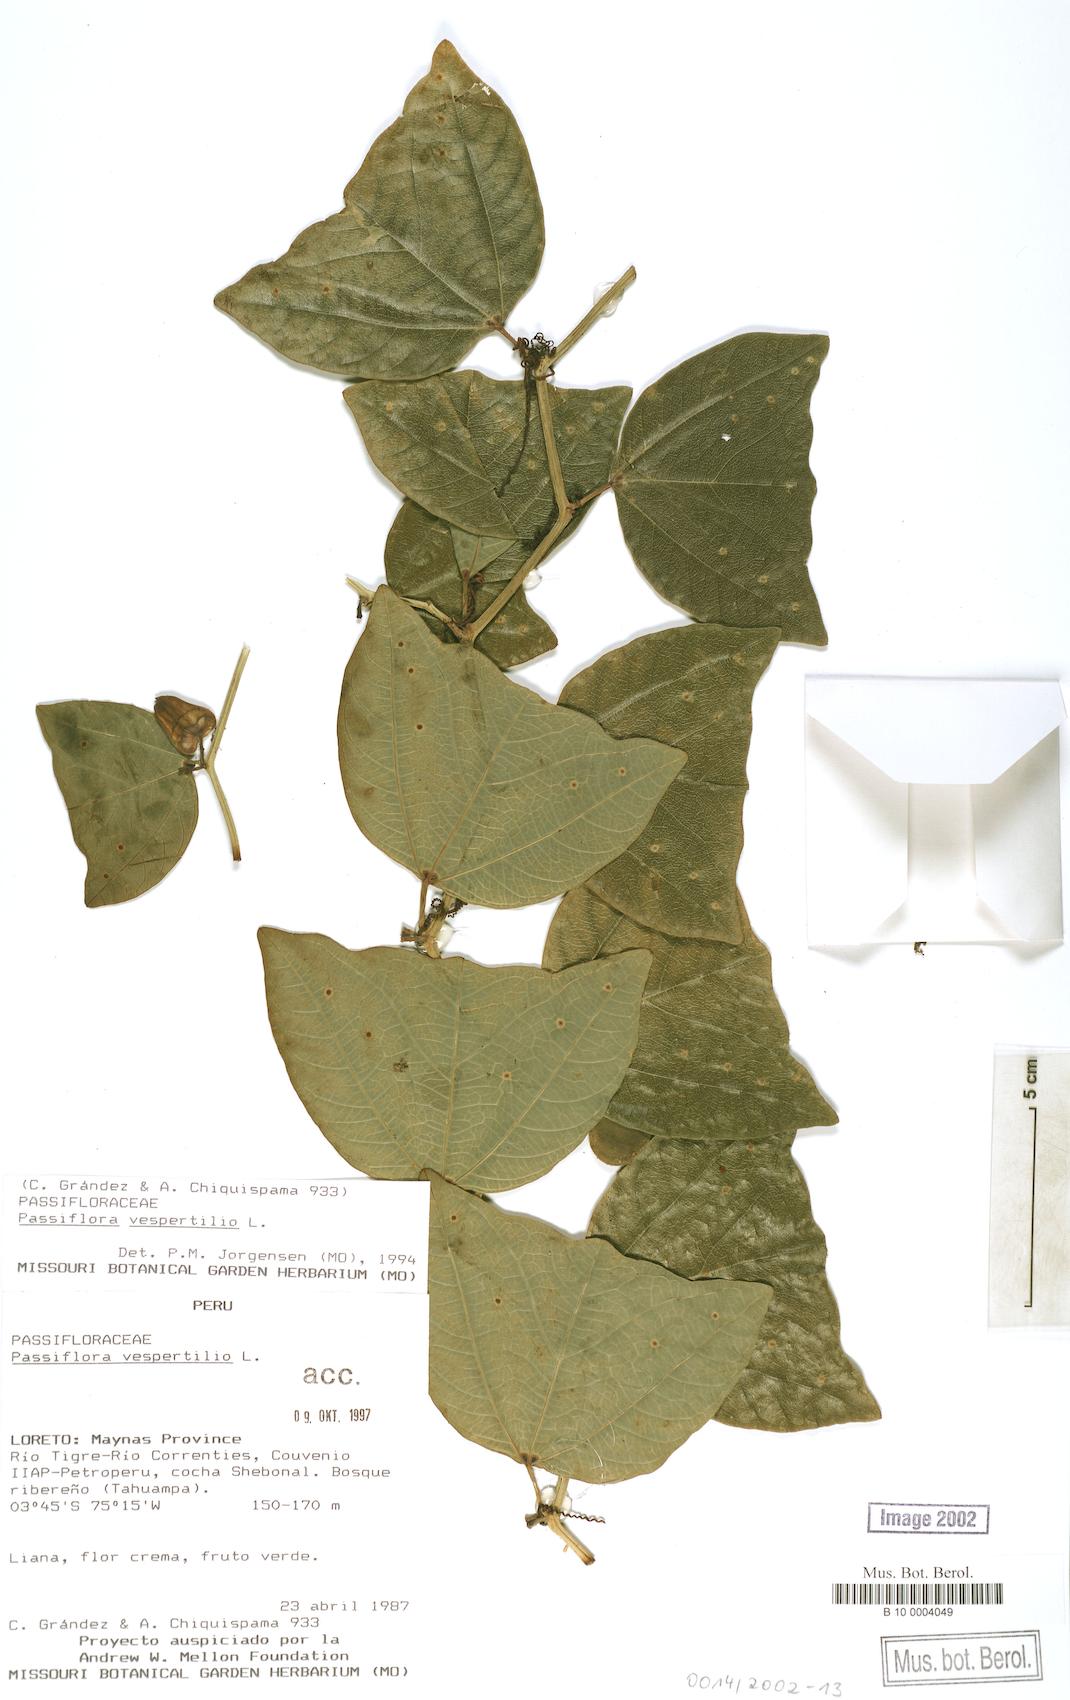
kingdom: Plantae
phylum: Tracheophyta
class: Magnoliopsida
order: Malpighiales
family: Passifloraceae
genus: Passiflora
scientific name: Passiflora vespertilio
